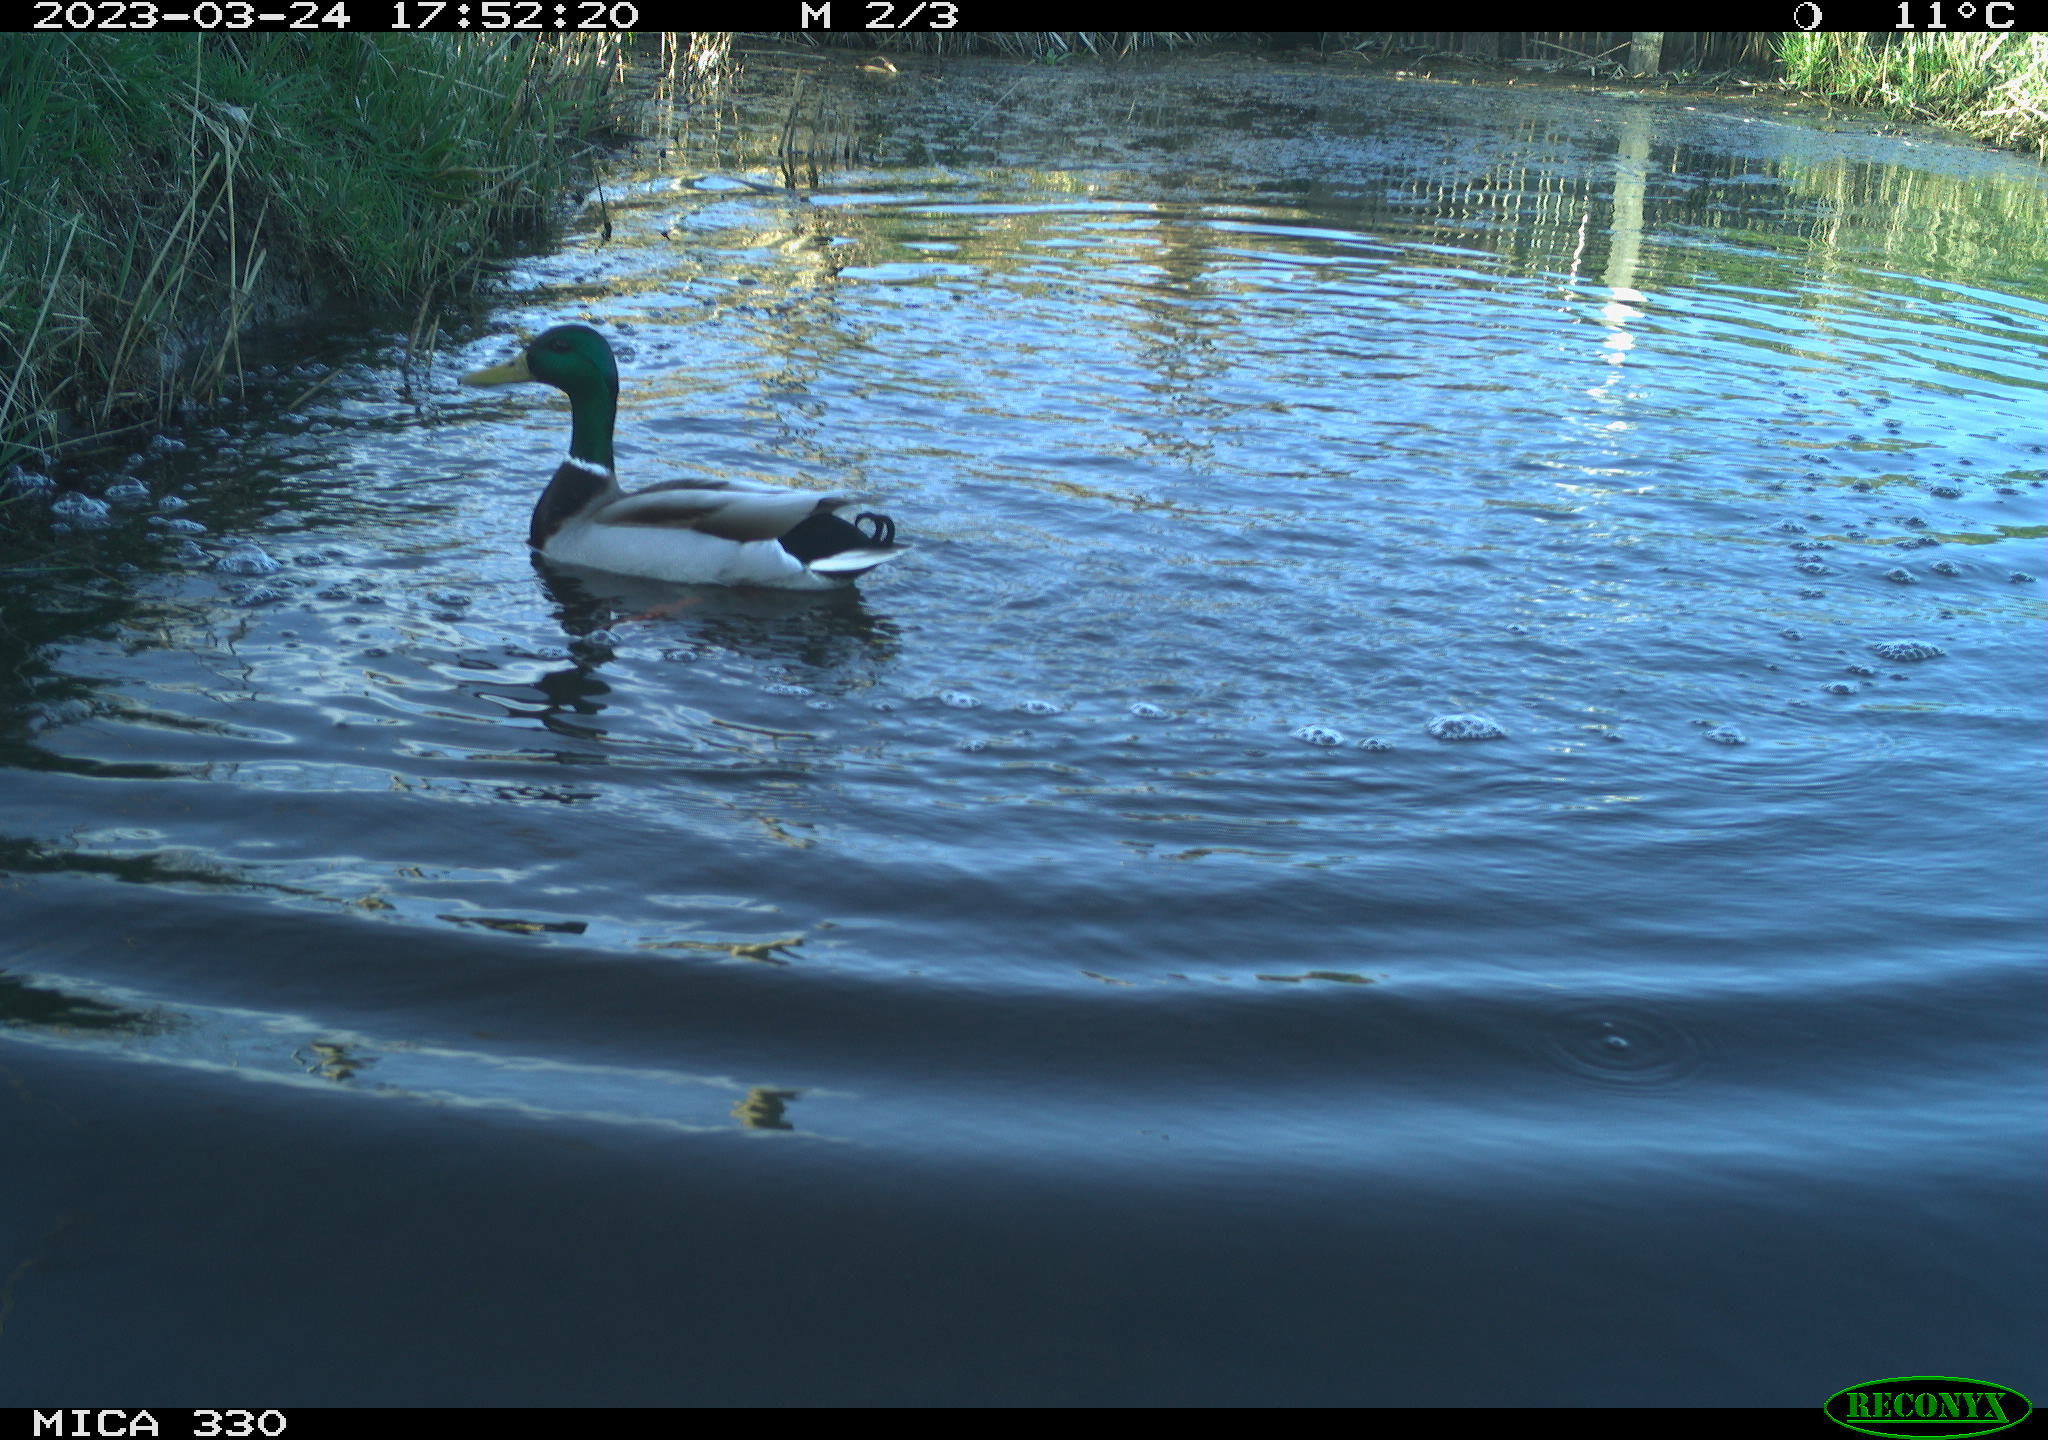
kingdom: Animalia
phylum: Chordata
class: Aves
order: Anseriformes
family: Anatidae
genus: Anas
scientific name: Anas
